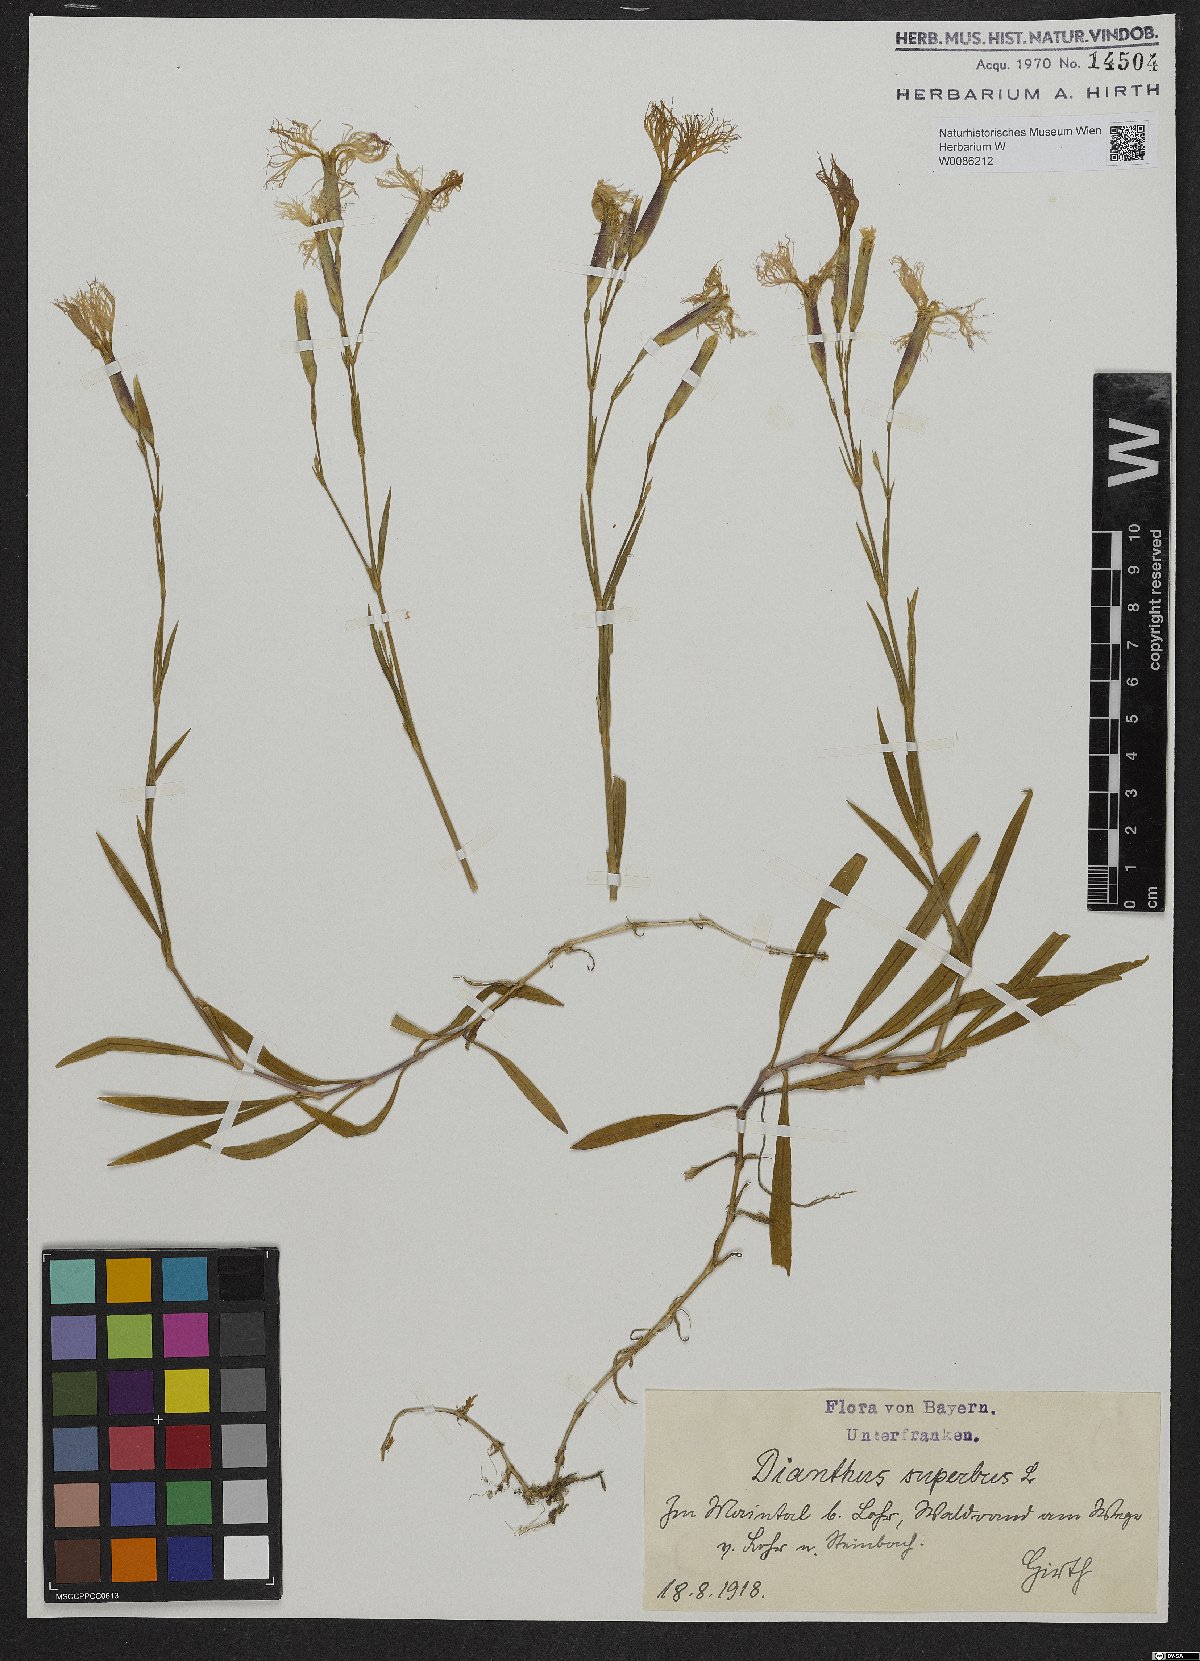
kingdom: Plantae
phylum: Tracheophyta
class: Magnoliopsida
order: Caryophyllales
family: Caryophyllaceae
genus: Dianthus
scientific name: Dianthus superbus
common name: Fringed pink
